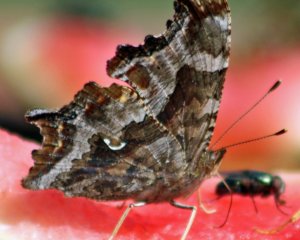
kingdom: Animalia
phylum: Arthropoda
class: Insecta
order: Lepidoptera
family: Nymphalidae
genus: Polygonia
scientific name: Polygonia comma
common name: Eastern Comma
